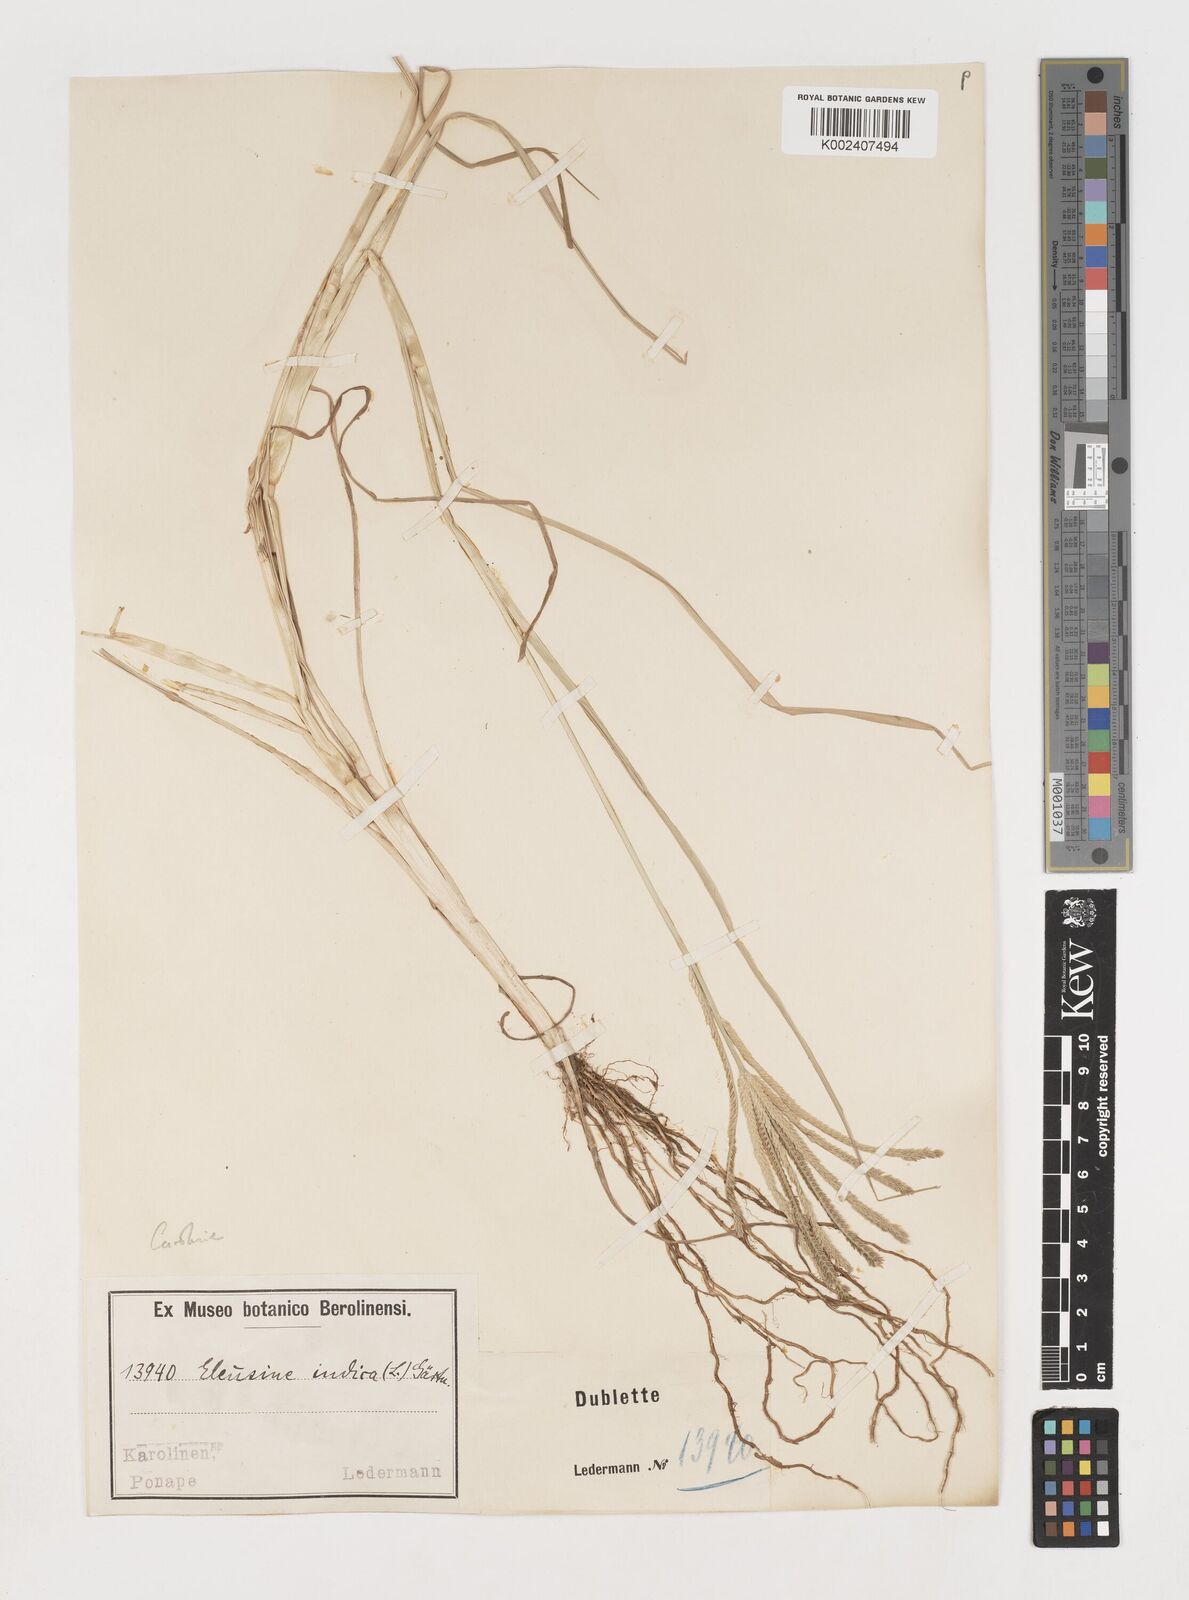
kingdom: Plantae
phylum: Tracheophyta
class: Liliopsida
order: Poales
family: Poaceae
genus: Eleusine
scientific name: Eleusine indica
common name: Yard-grass
